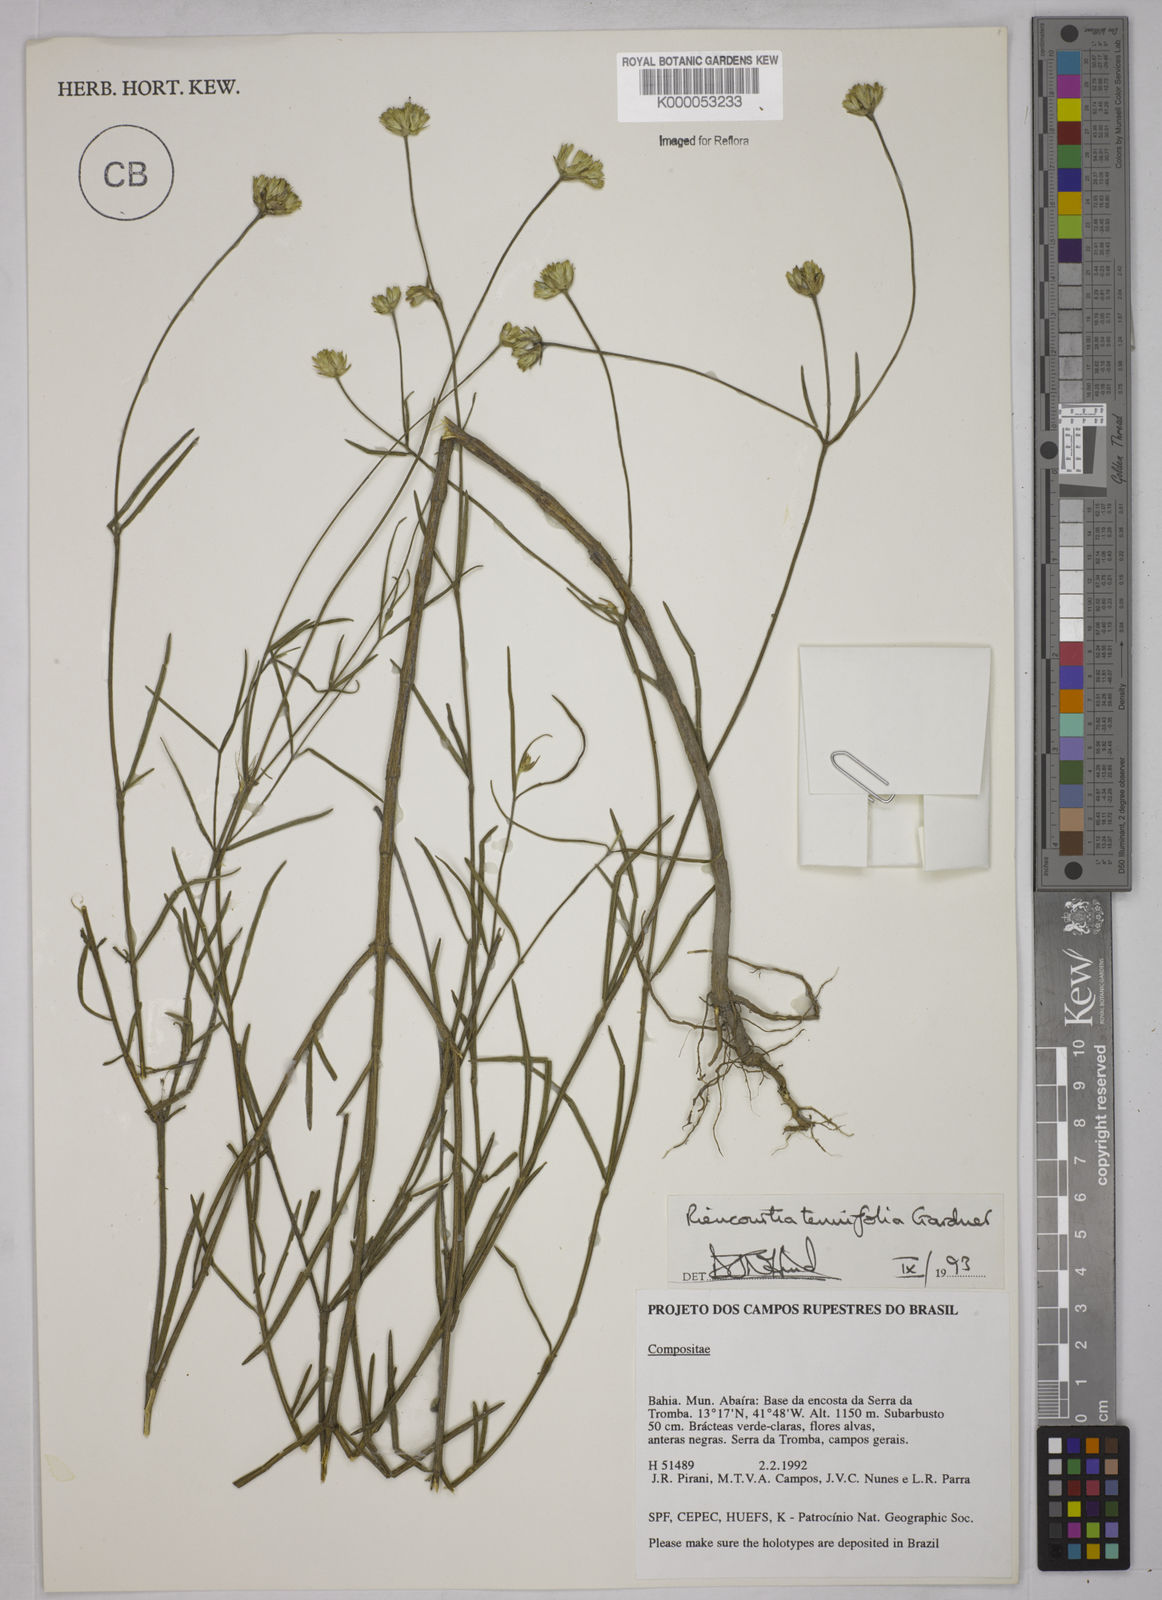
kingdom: Plantae
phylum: Tracheophyta
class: Magnoliopsida
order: Asterales
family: Asteraceae
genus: Riencourtia
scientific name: Riencourtia tenuifolia
